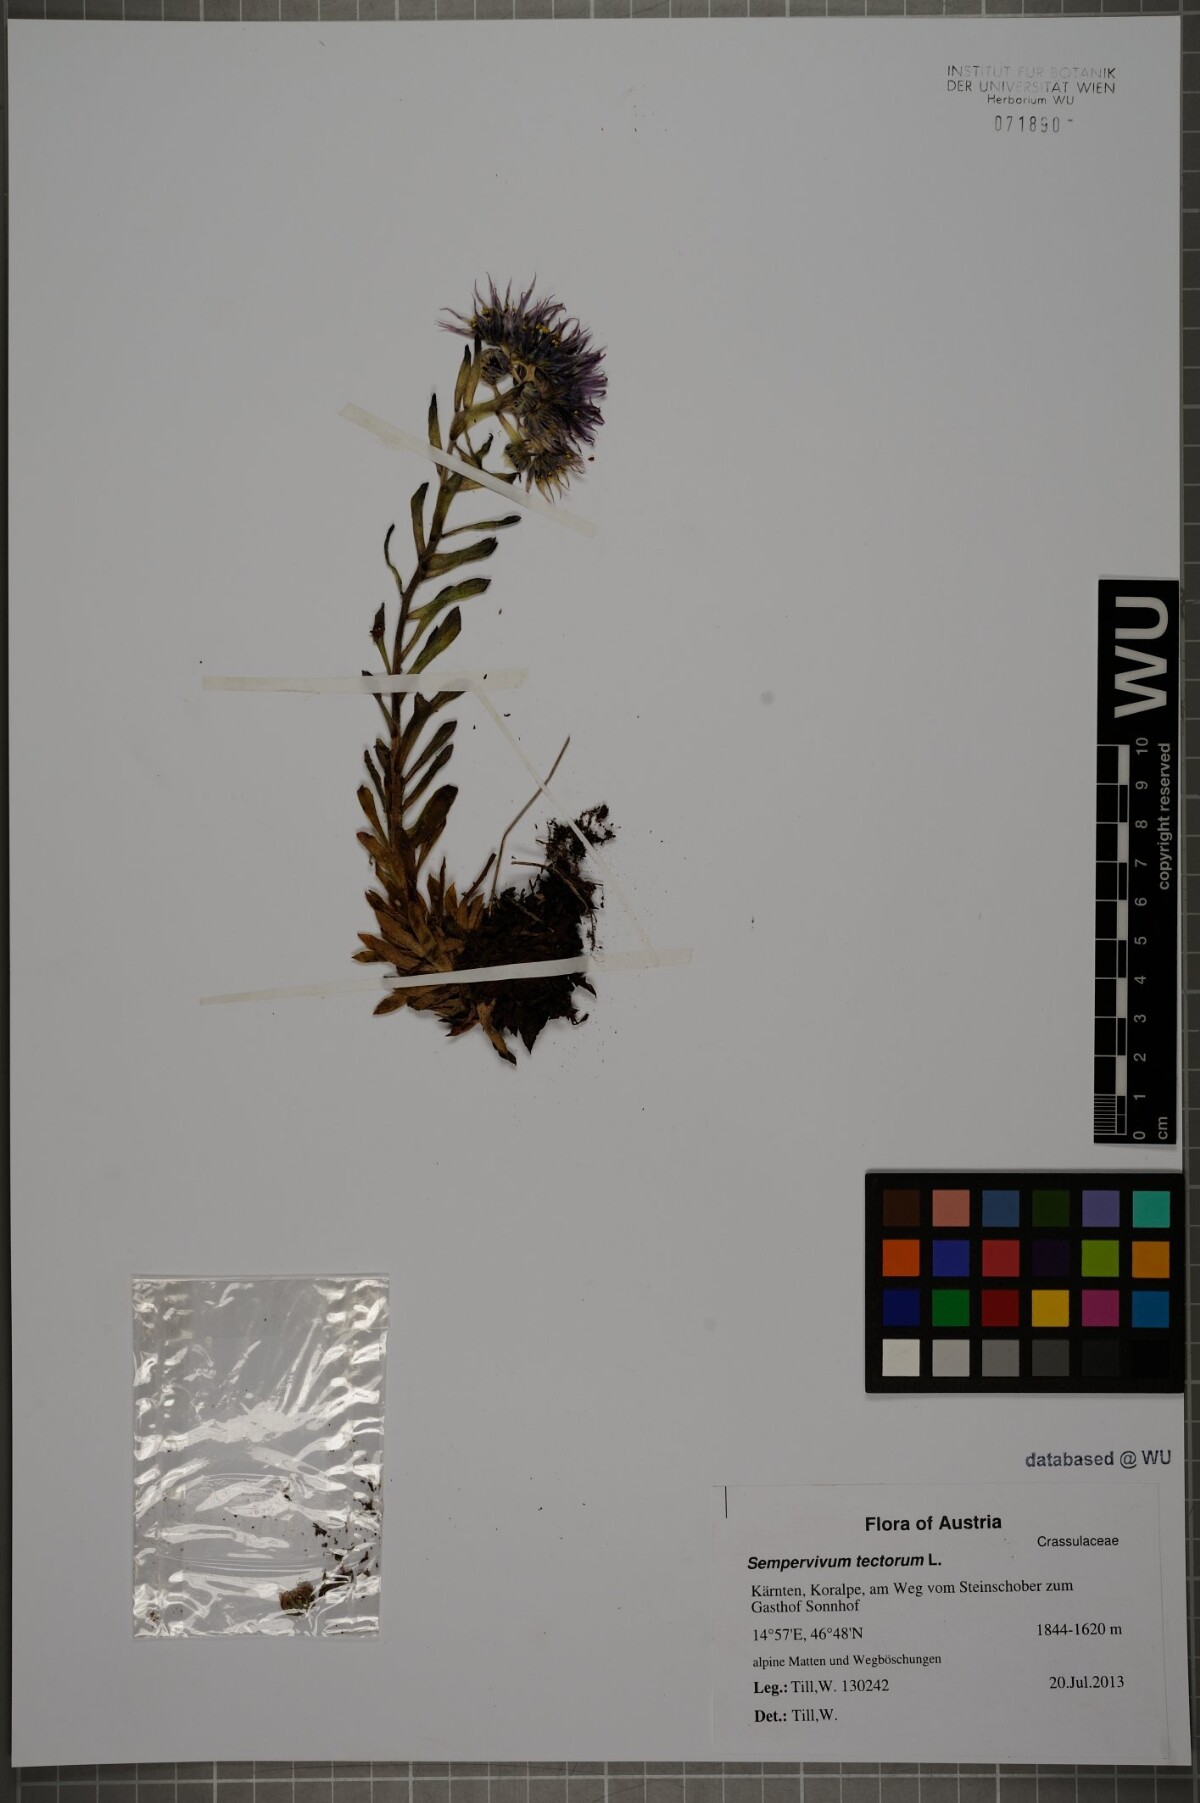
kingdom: Plantae
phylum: Tracheophyta
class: Magnoliopsida
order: Saxifragales
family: Crassulaceae
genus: Sempervivum
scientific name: Sempervivum tectorum
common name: House-leek
